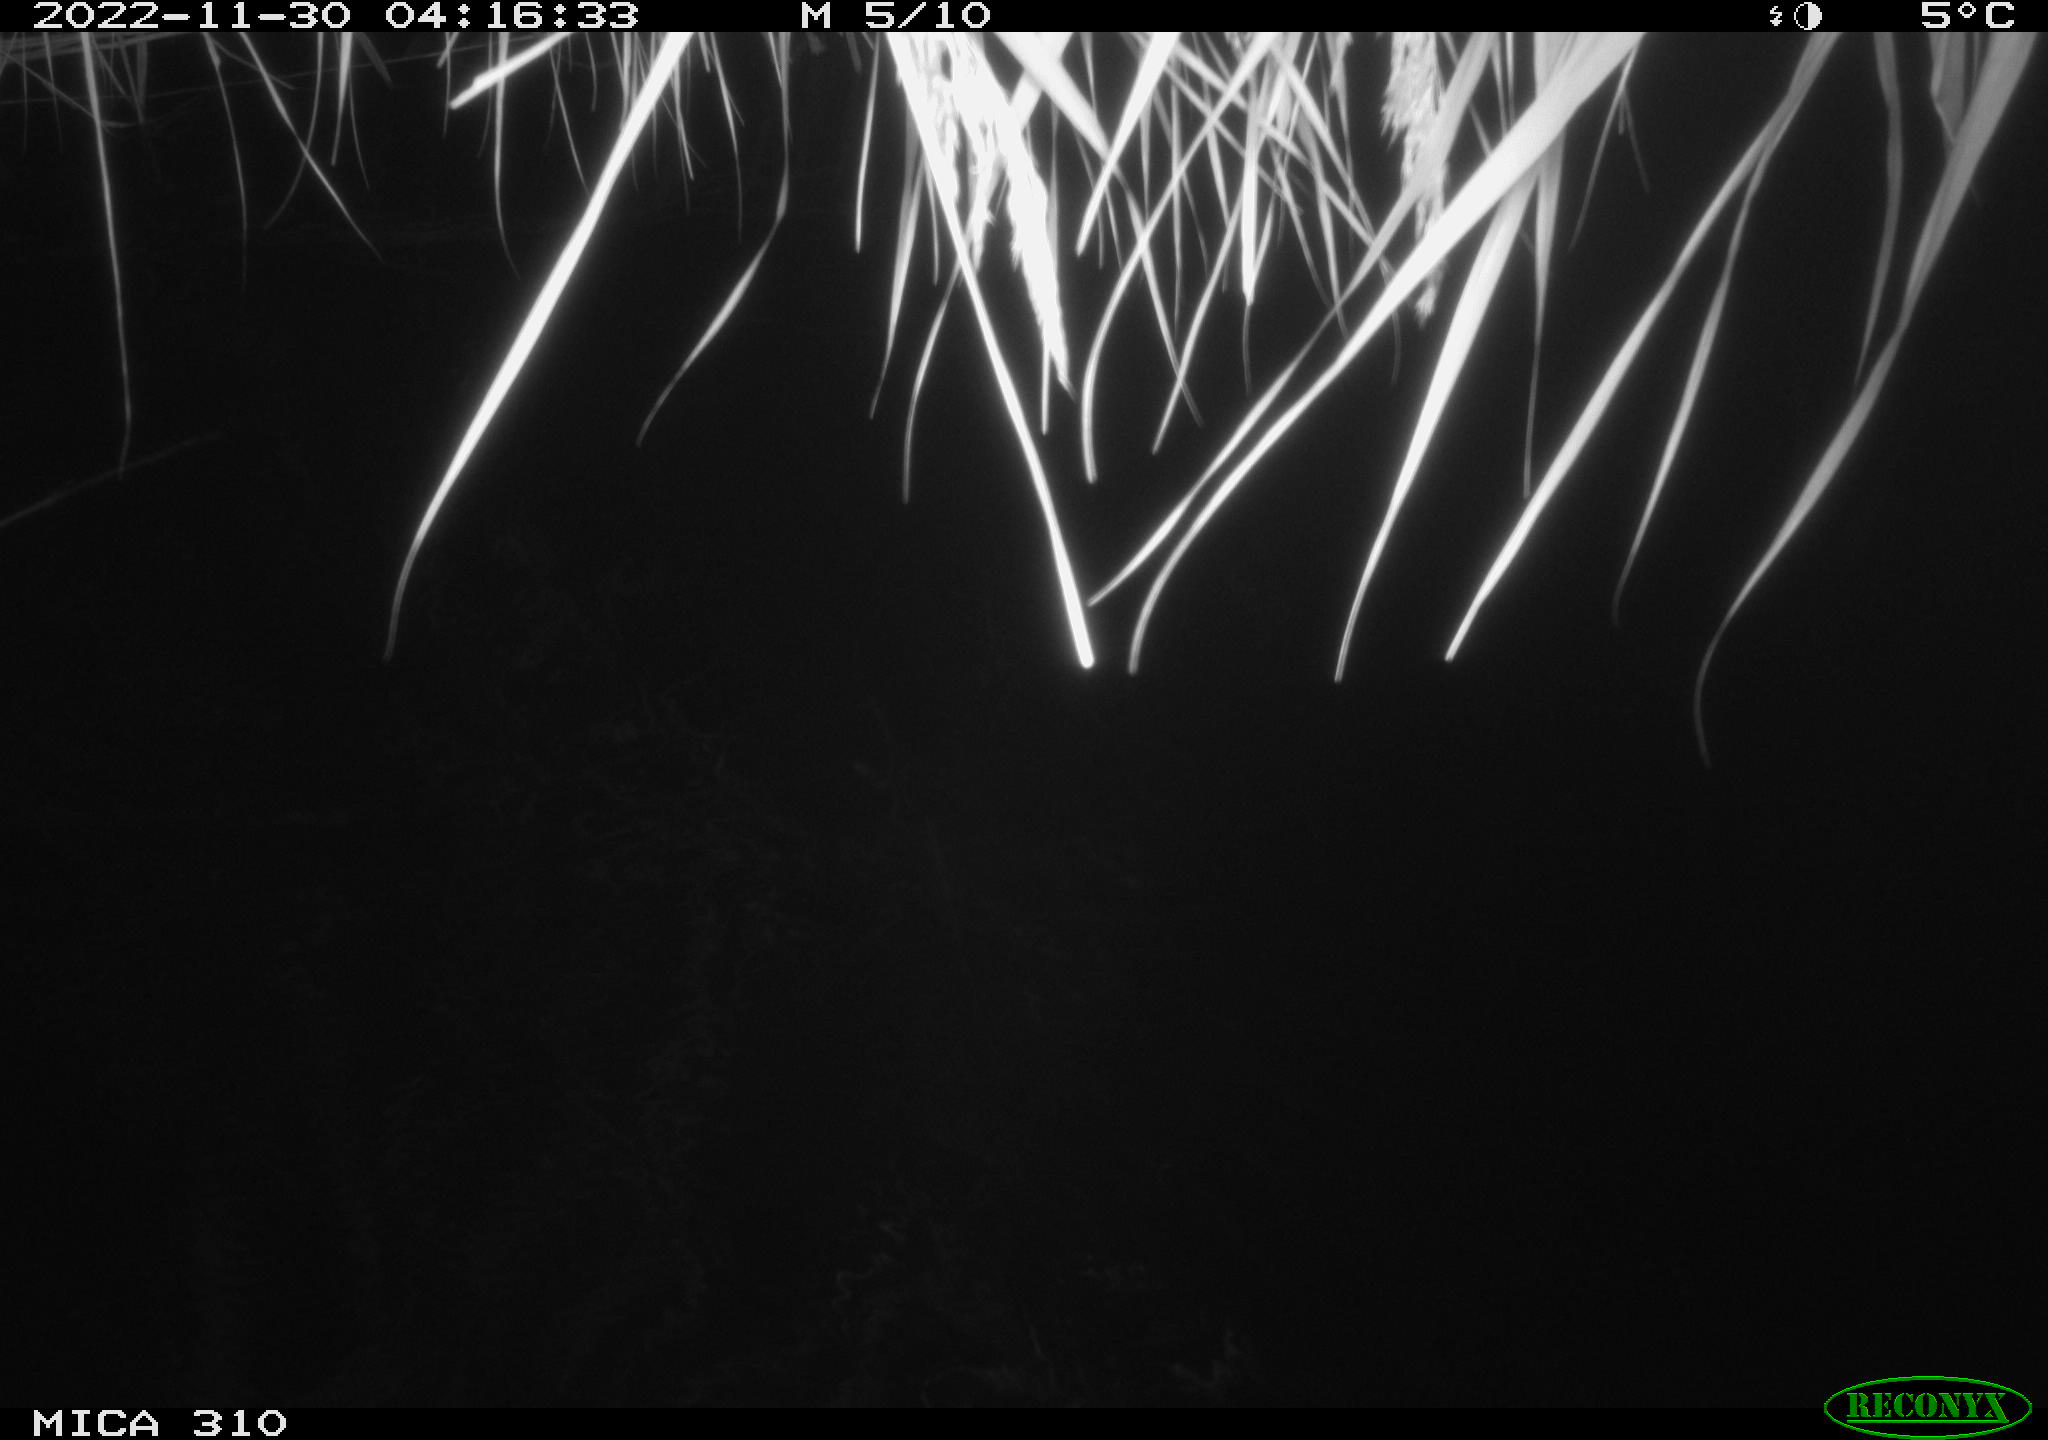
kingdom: Animalia
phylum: Chordata
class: Mammalia
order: Rodentia
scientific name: Rodentia
